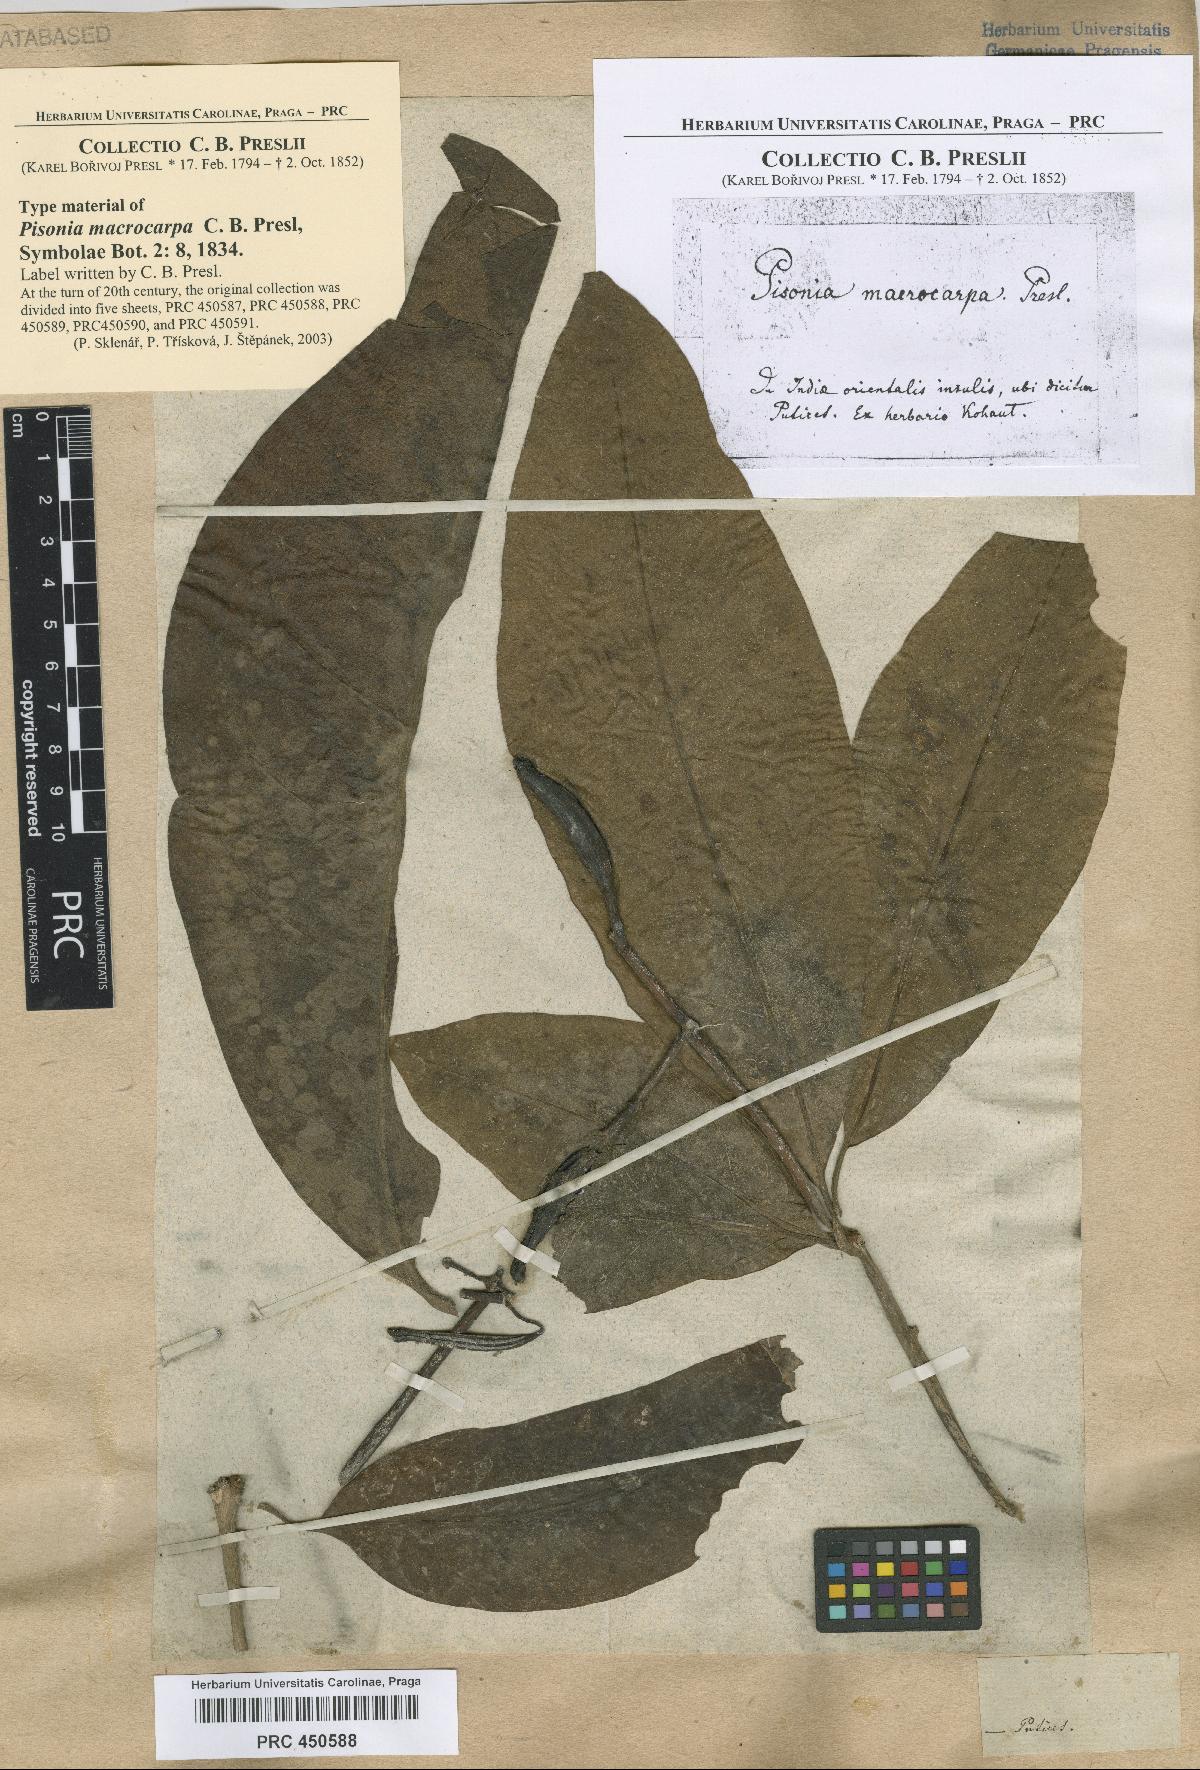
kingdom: Plantae
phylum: Tracheophyta
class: Magnoliopsida
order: Caryophyllales
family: Nyctaginaceae
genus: Ceodes
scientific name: Ceodes umbellifera
